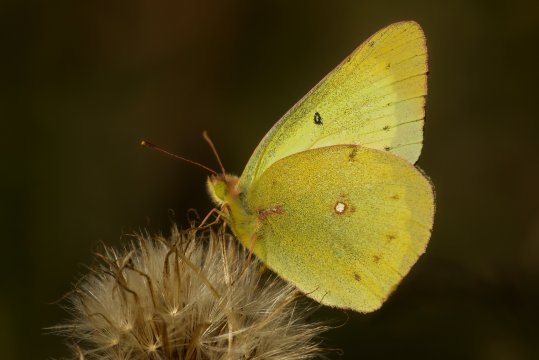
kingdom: Animalia
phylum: Arthropoda
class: Insecta
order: Lepidoptera
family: Pieridae
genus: Colias
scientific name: Colias philodice
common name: Clouded Sulphur
